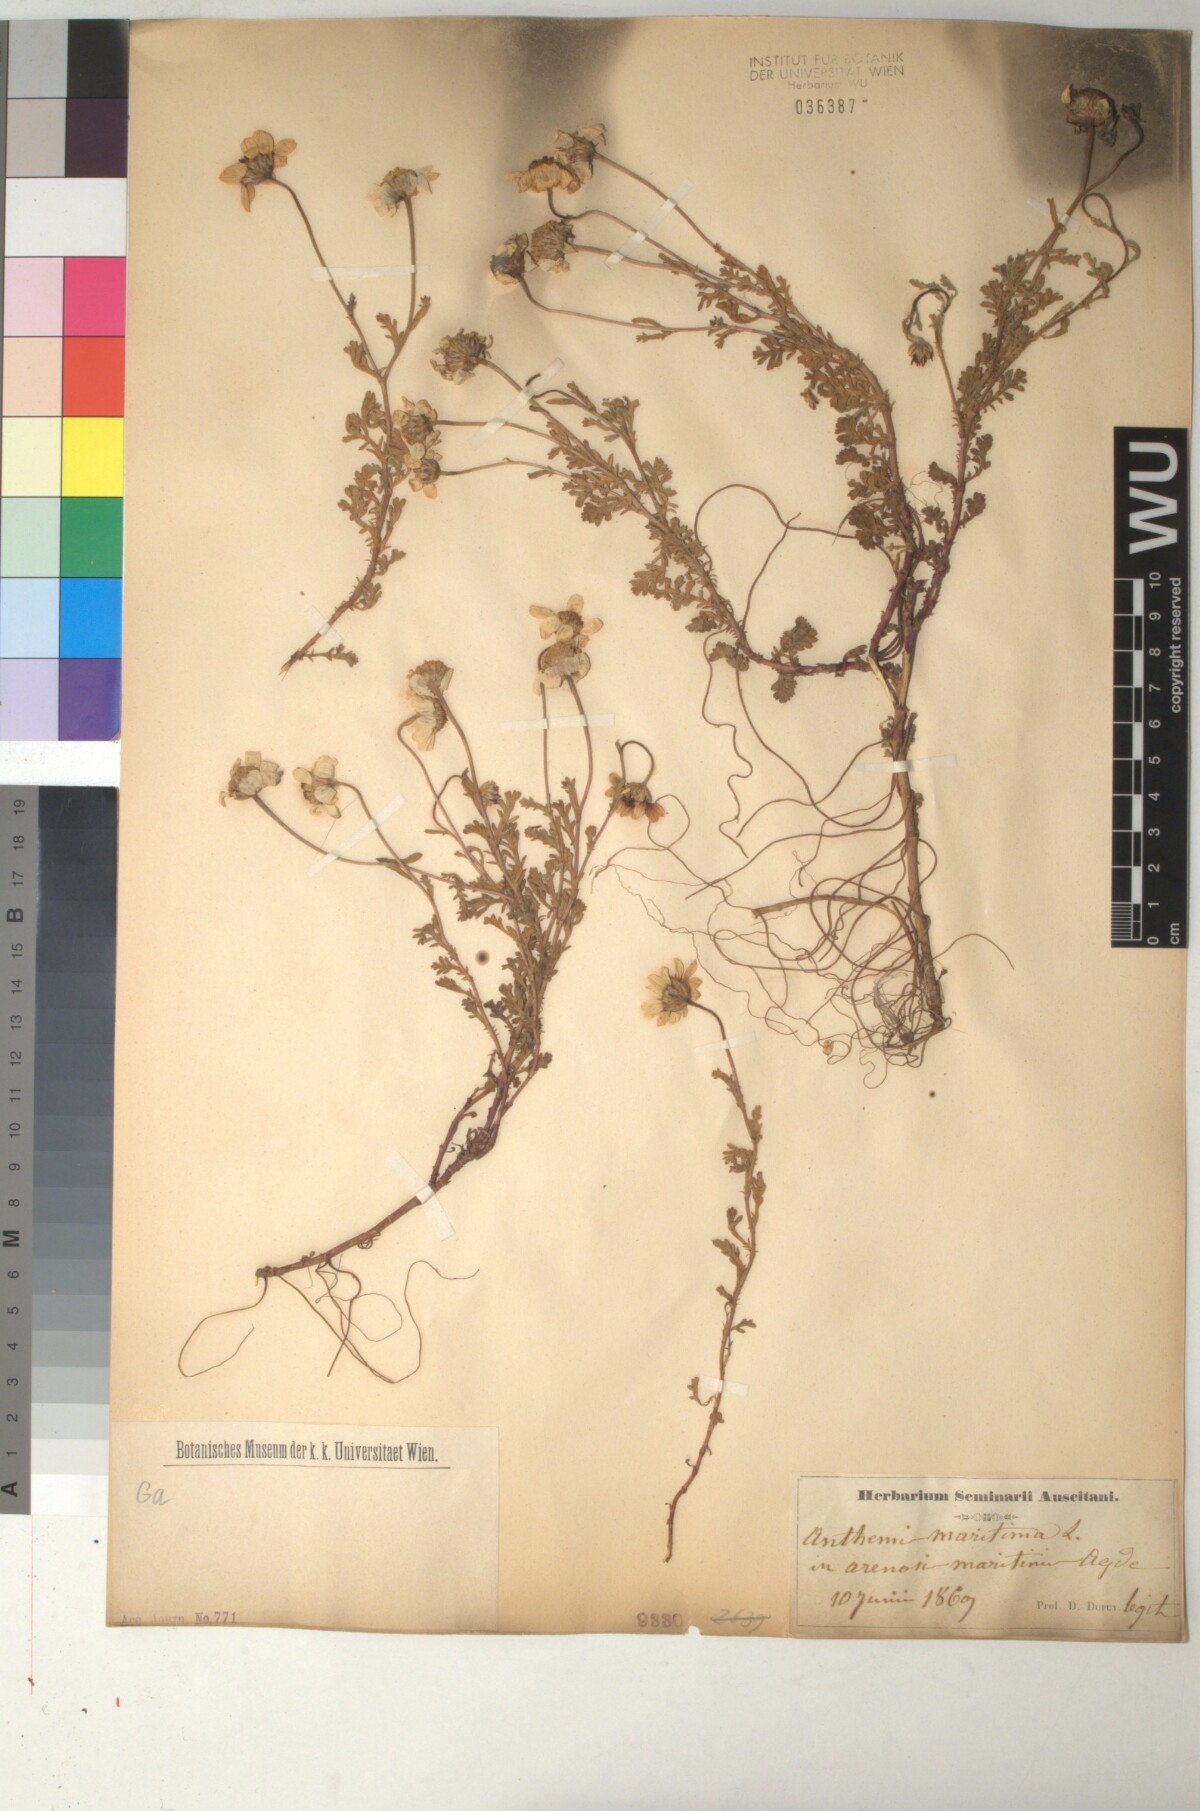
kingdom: Plantae
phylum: Tracheophyta
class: Magnoliopsida
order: Asterales
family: Asteraceae
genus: Anthemis
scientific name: Anthemis maritima
